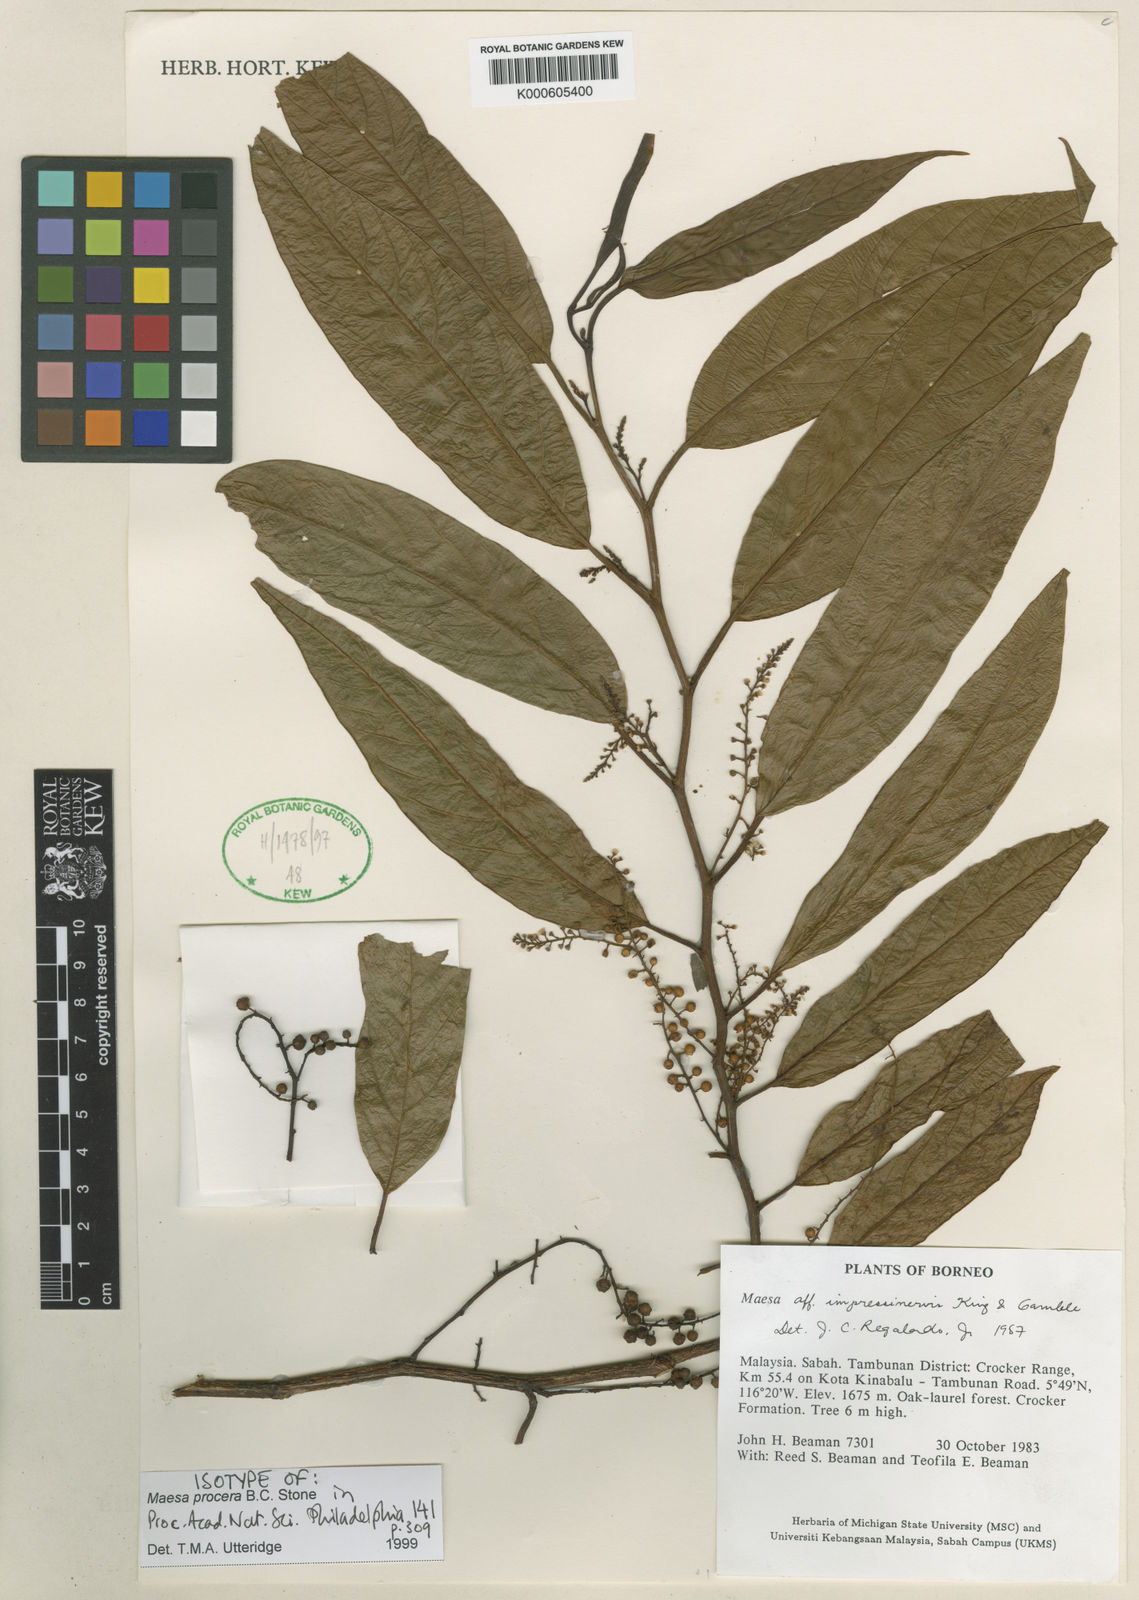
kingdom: Plantae
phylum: Tracheophyta
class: Magnoliopsida
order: Ericales
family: Primulaceae
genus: Maesa
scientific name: Maesa procera
